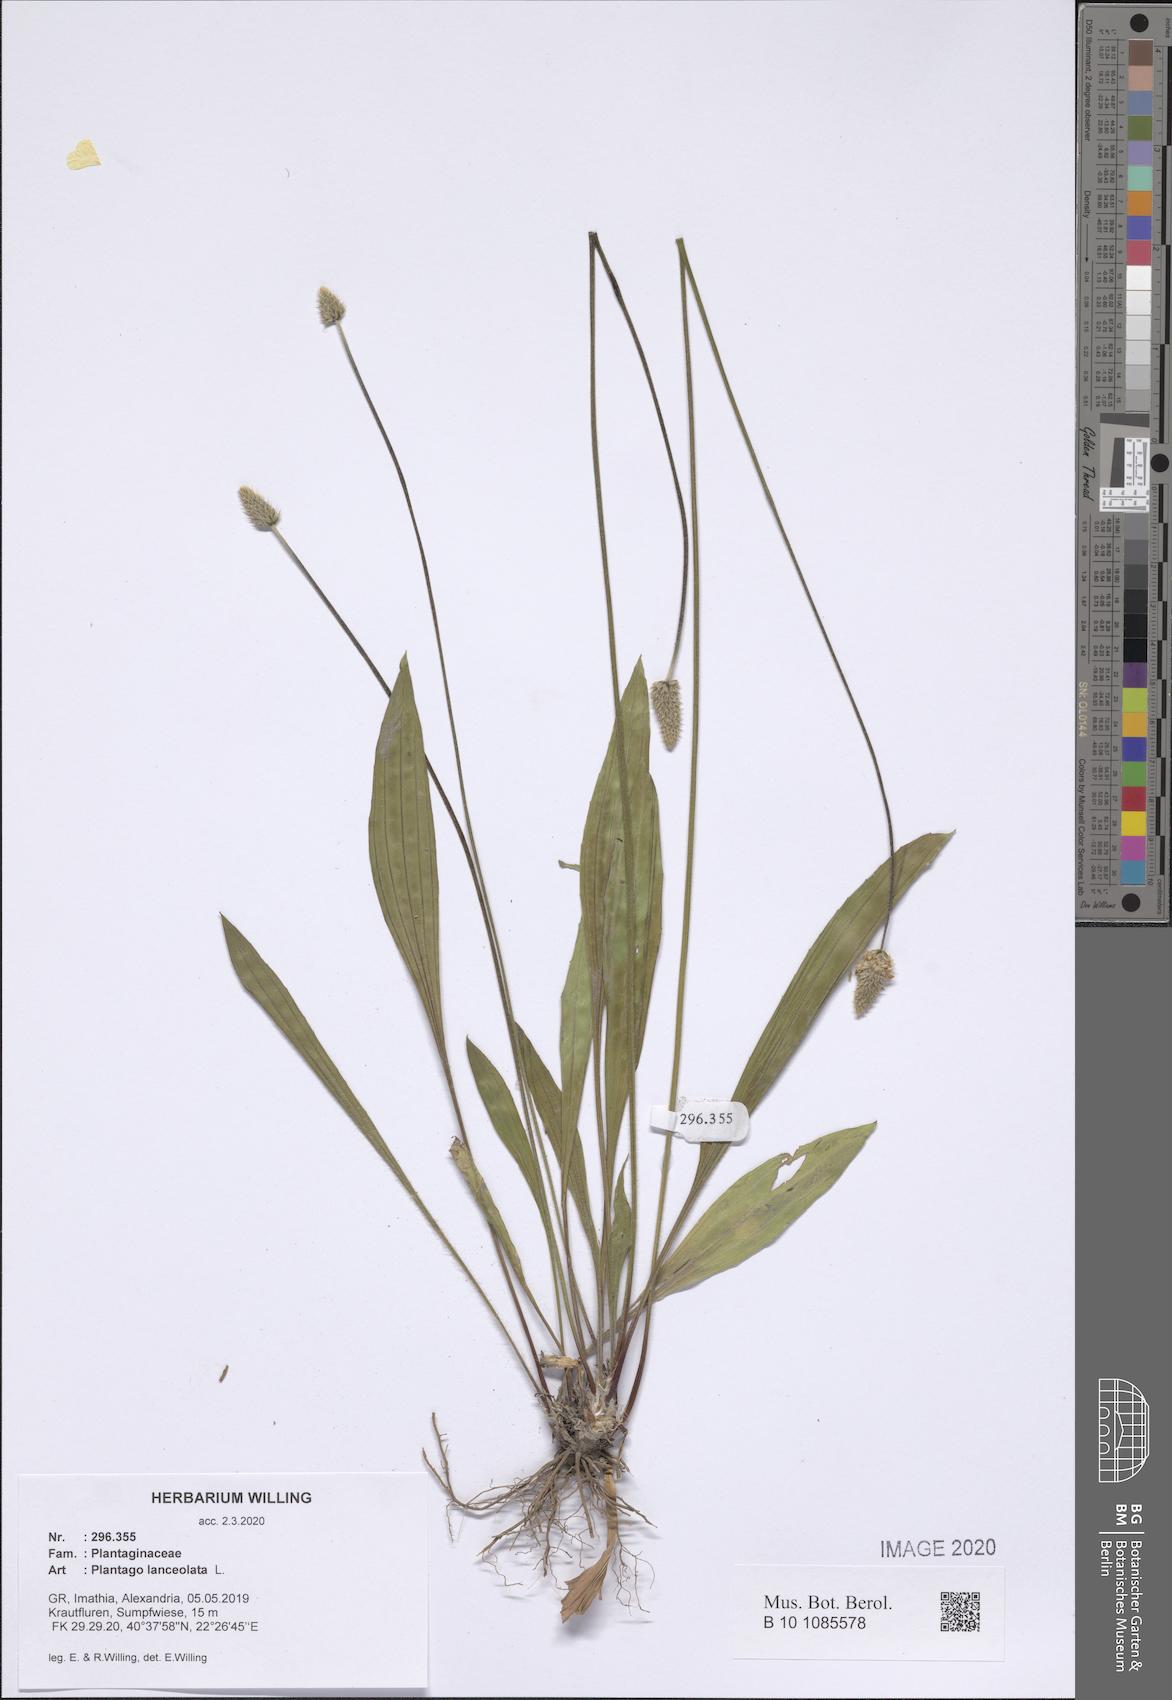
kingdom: Plantae
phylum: Tracheophyta
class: Magnoliopsida
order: Lamiales
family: Plantaginaceae
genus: Plantago
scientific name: Plantago lanceolata
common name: Ribwort plantain
